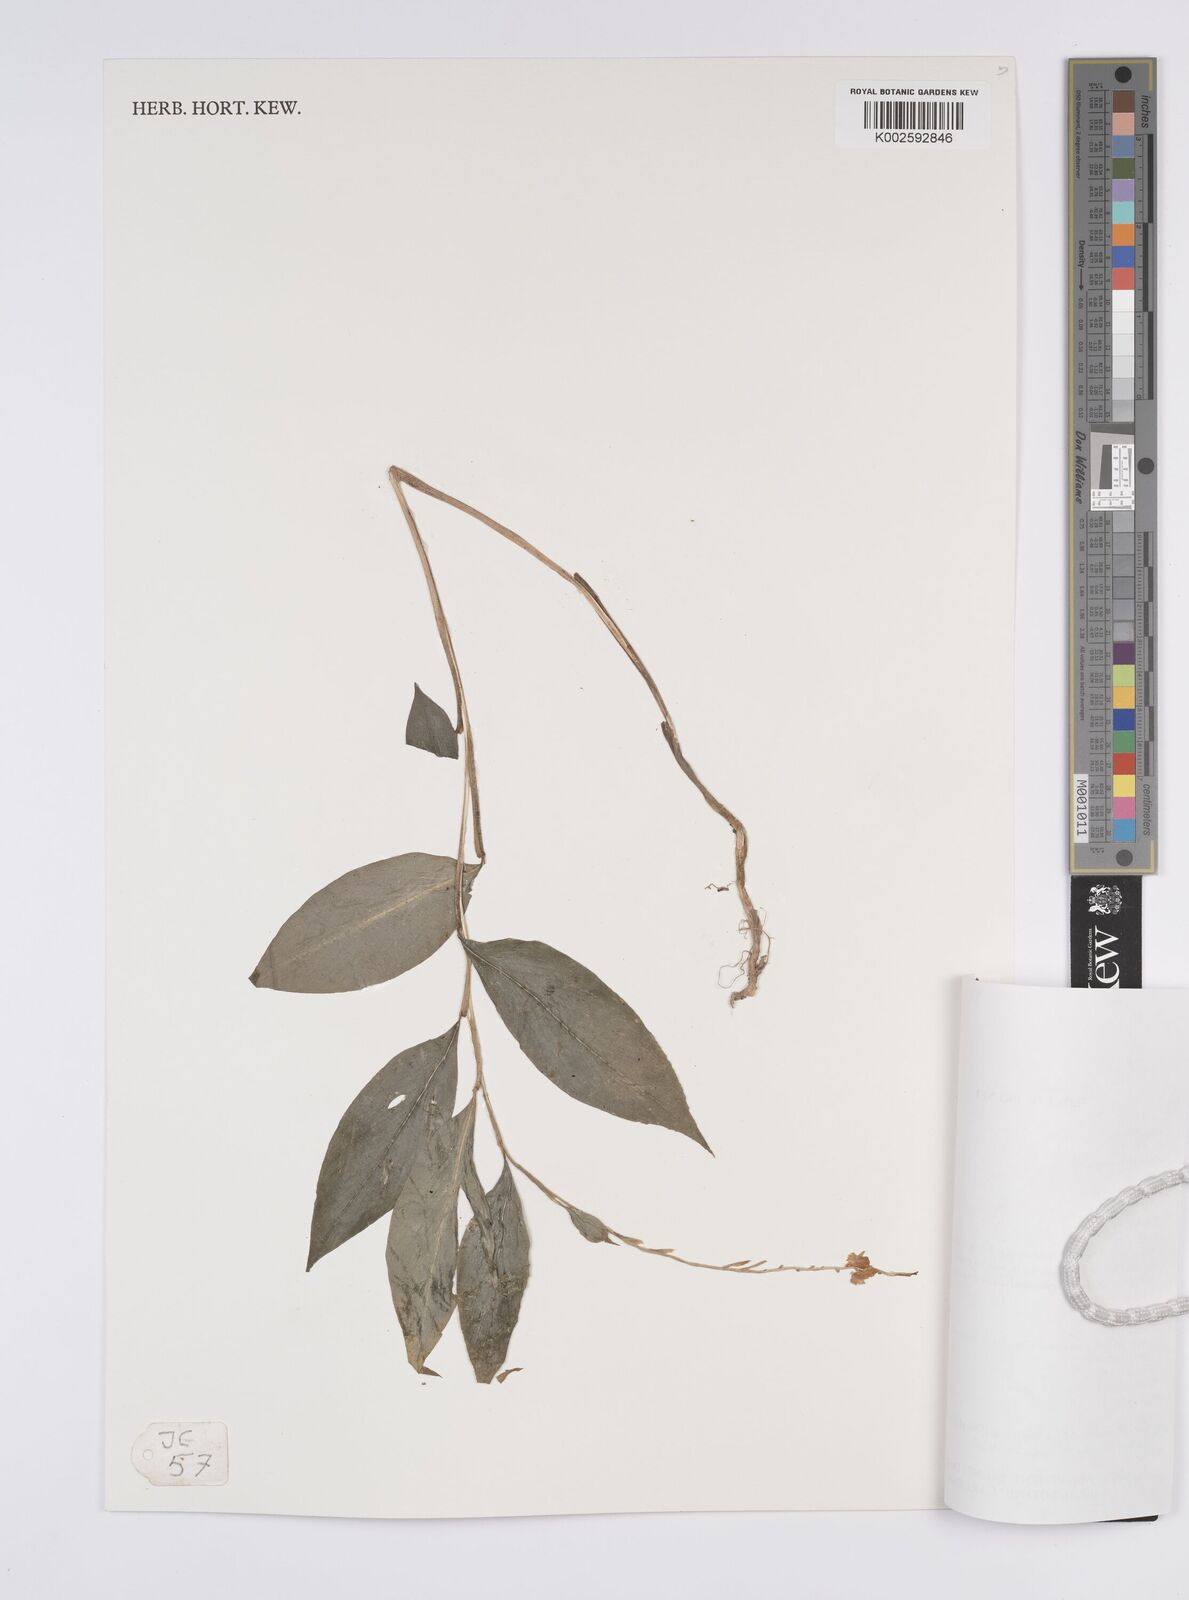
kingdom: Plantae
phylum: Tracheophyta
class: Liliopsida
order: Zingiberales
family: Zingiberaceae
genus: Globba
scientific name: Globba atrosanguinea
